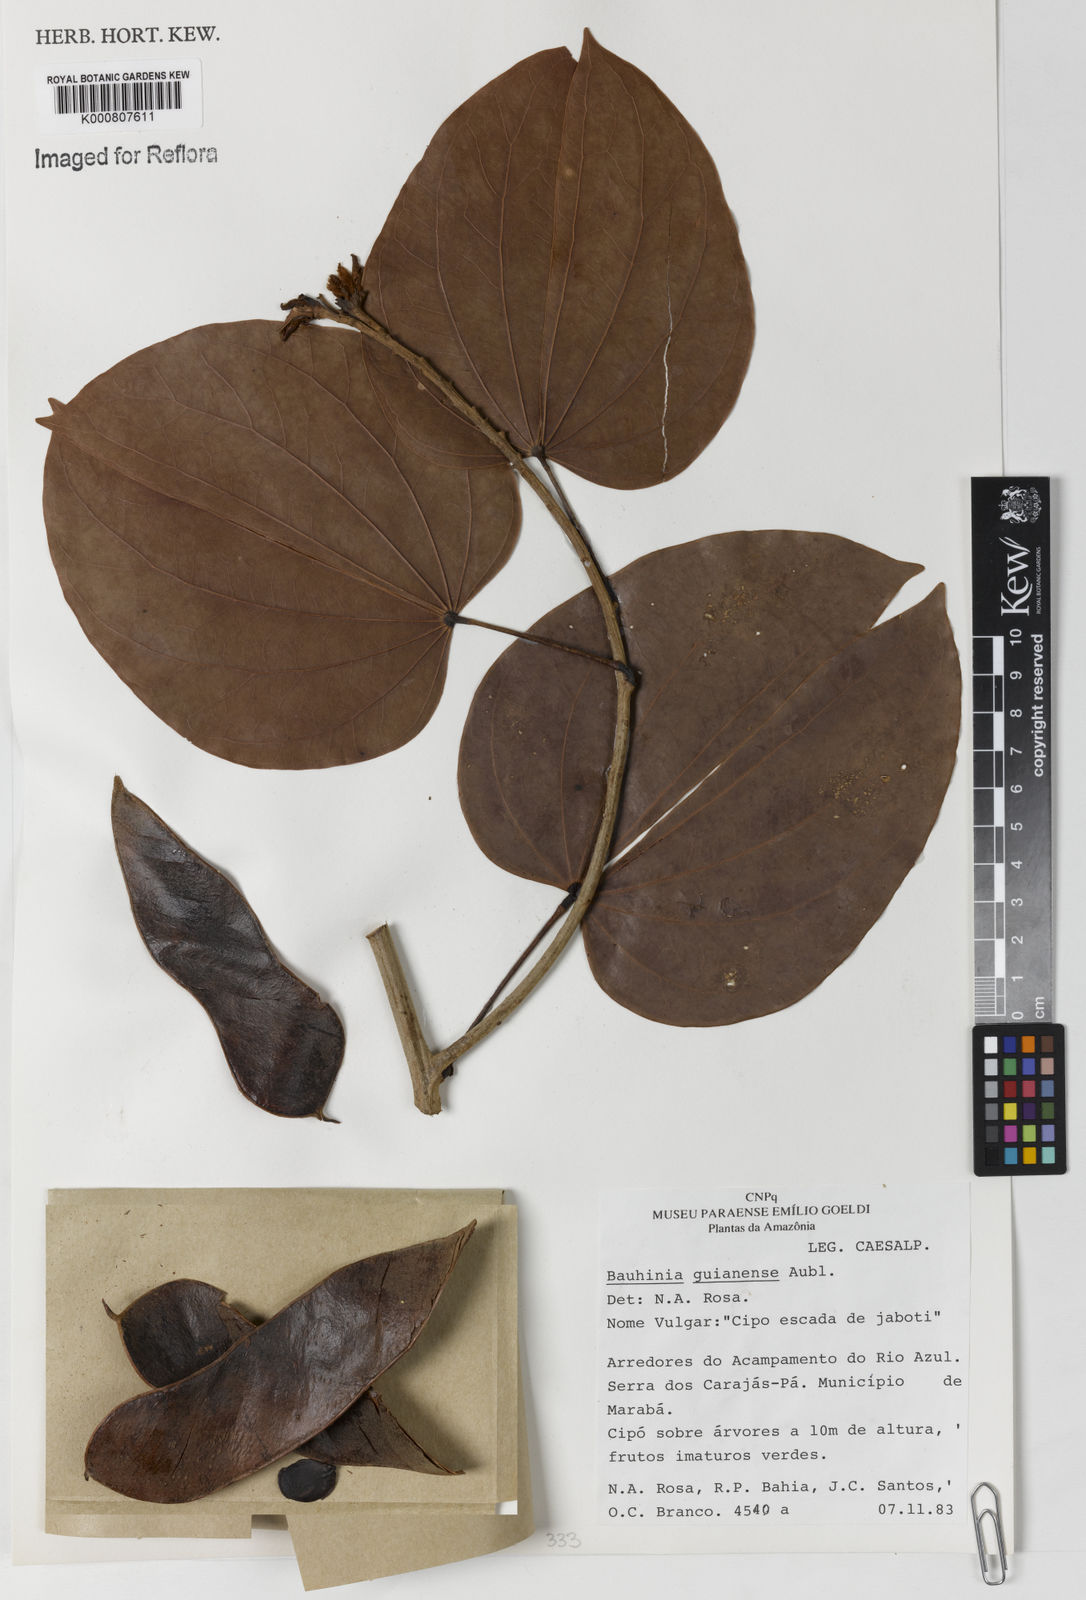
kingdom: Plantae
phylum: Tracheophyta
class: Magnoliopsida
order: Fabales
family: Fabaceae
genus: Schnella
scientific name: Schnella guianensis
